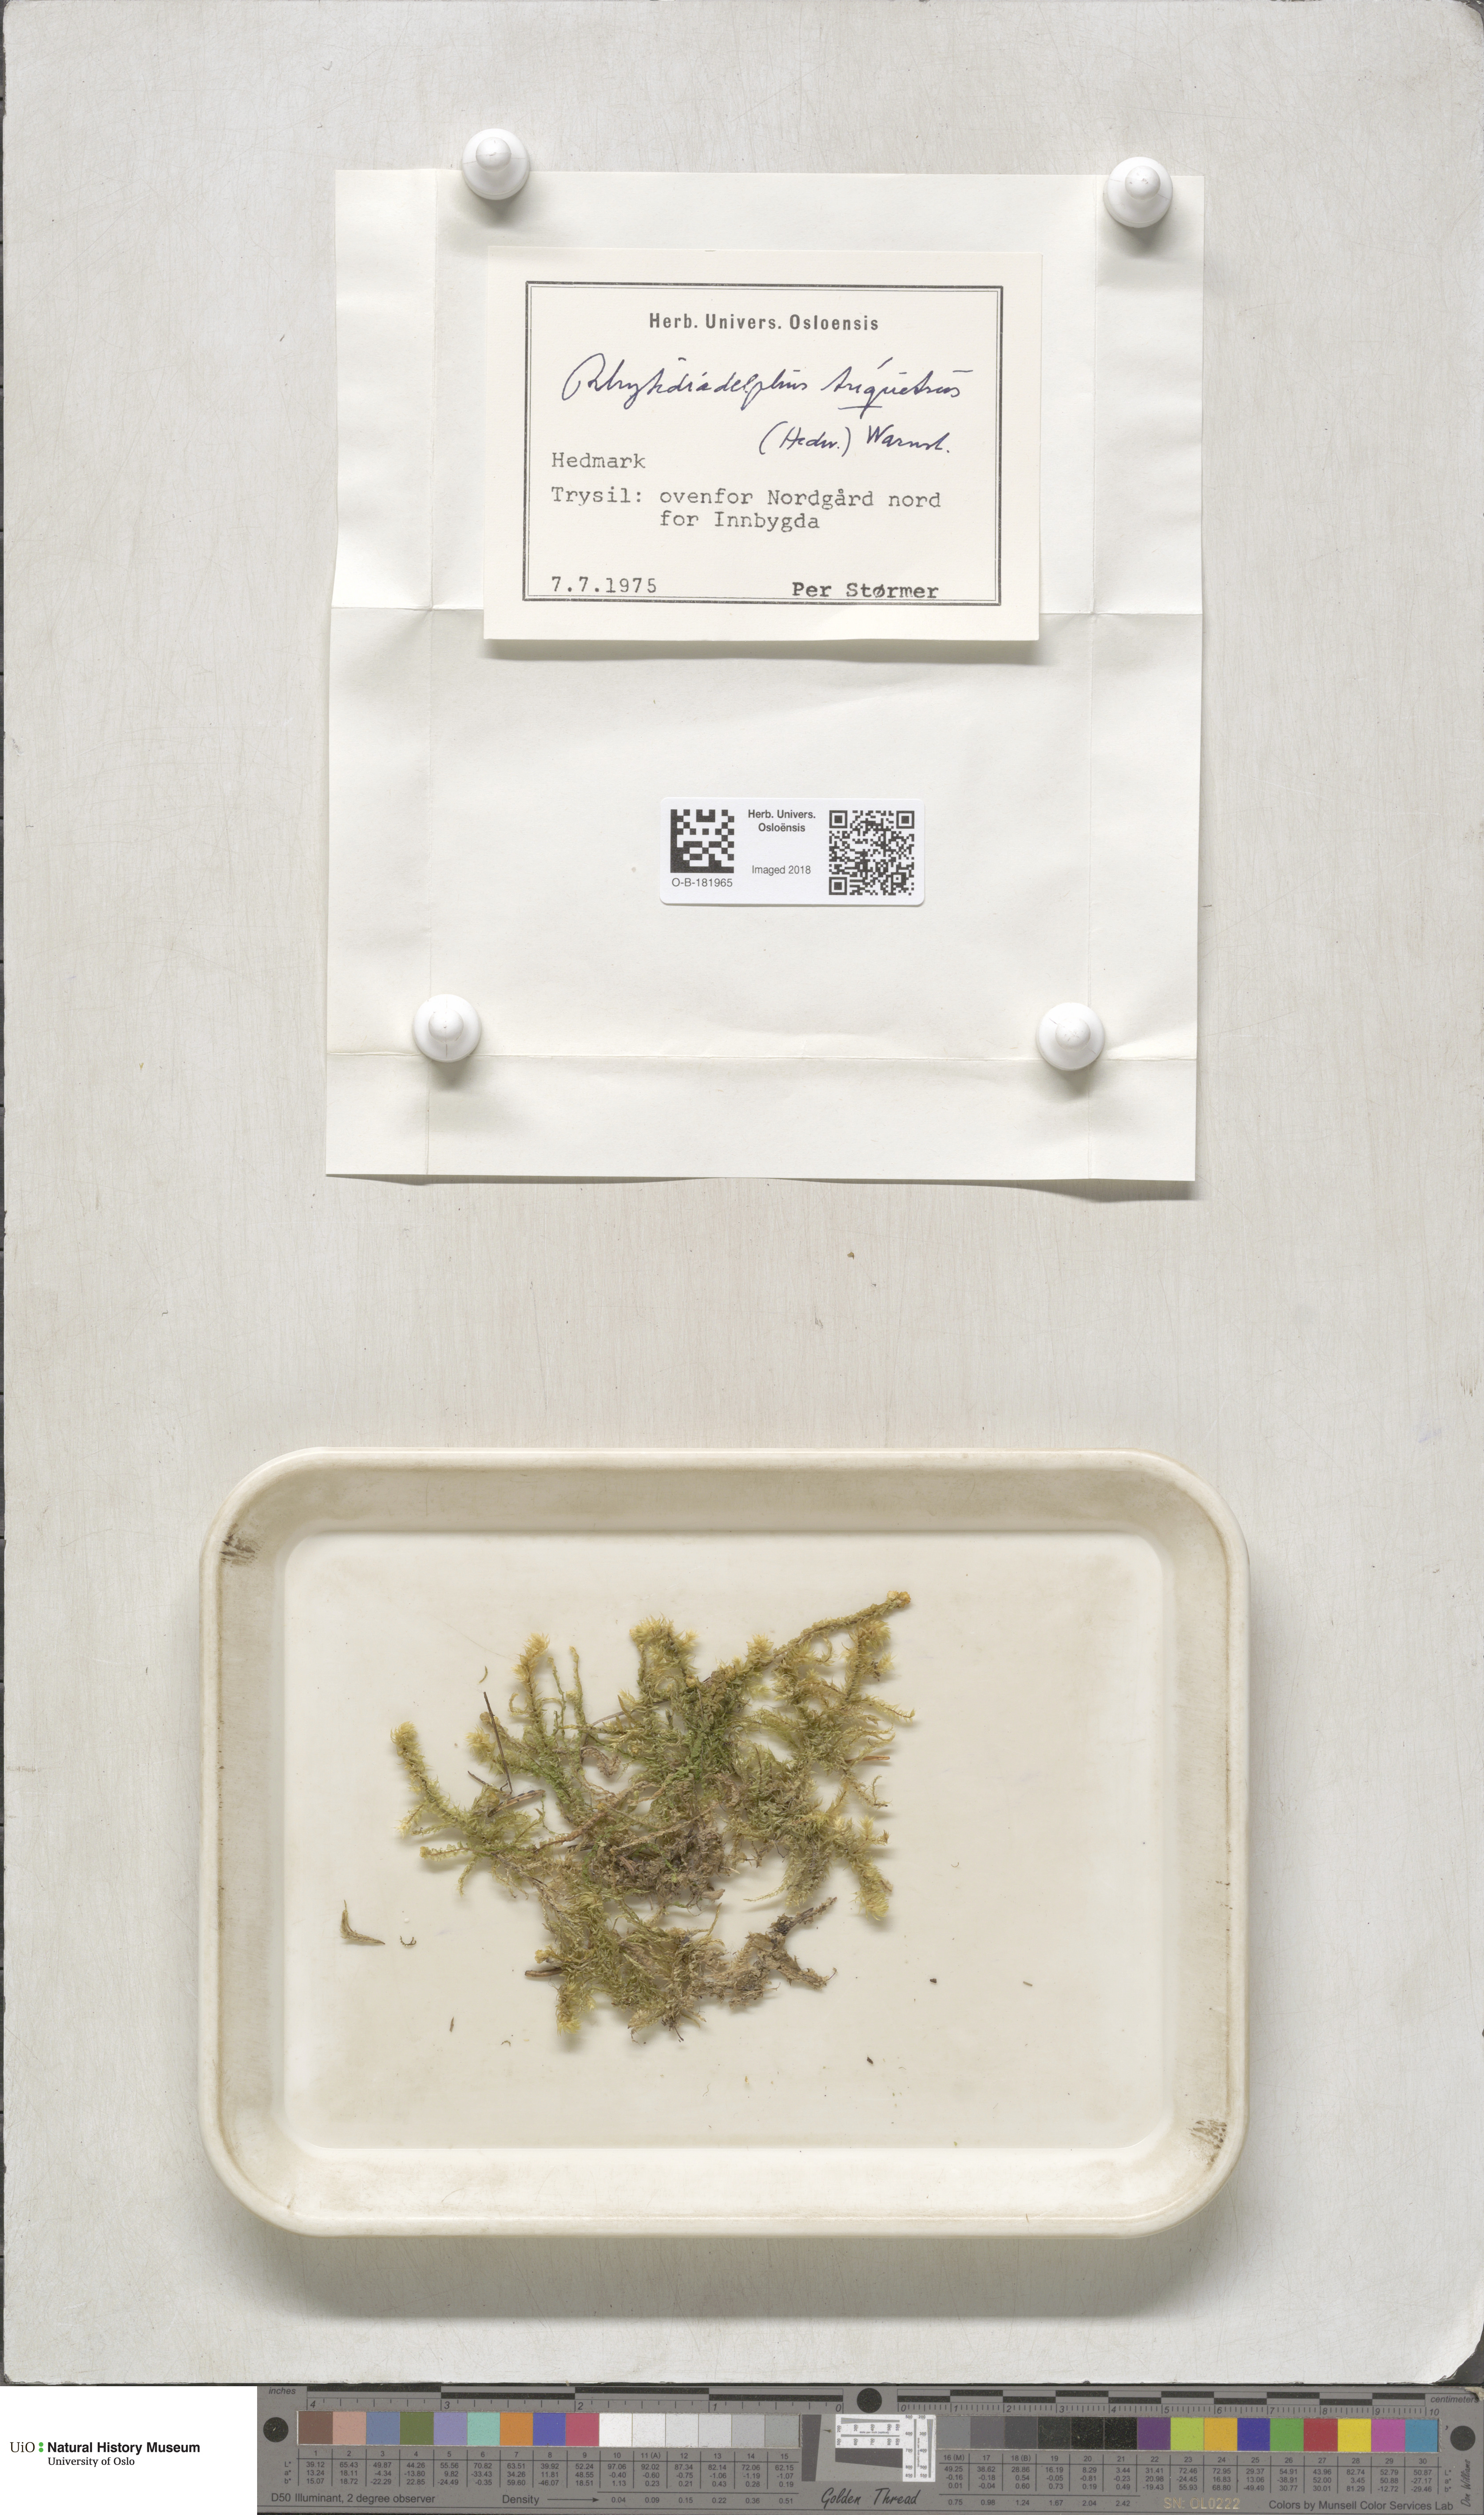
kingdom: Plantae
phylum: Bryophyta
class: Bryopsida
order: Hypnales
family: Hylocomiaceae
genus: Hylocomiadelphus
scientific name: Hylocomiadelphus triquetrus
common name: Rough goose neck moss
